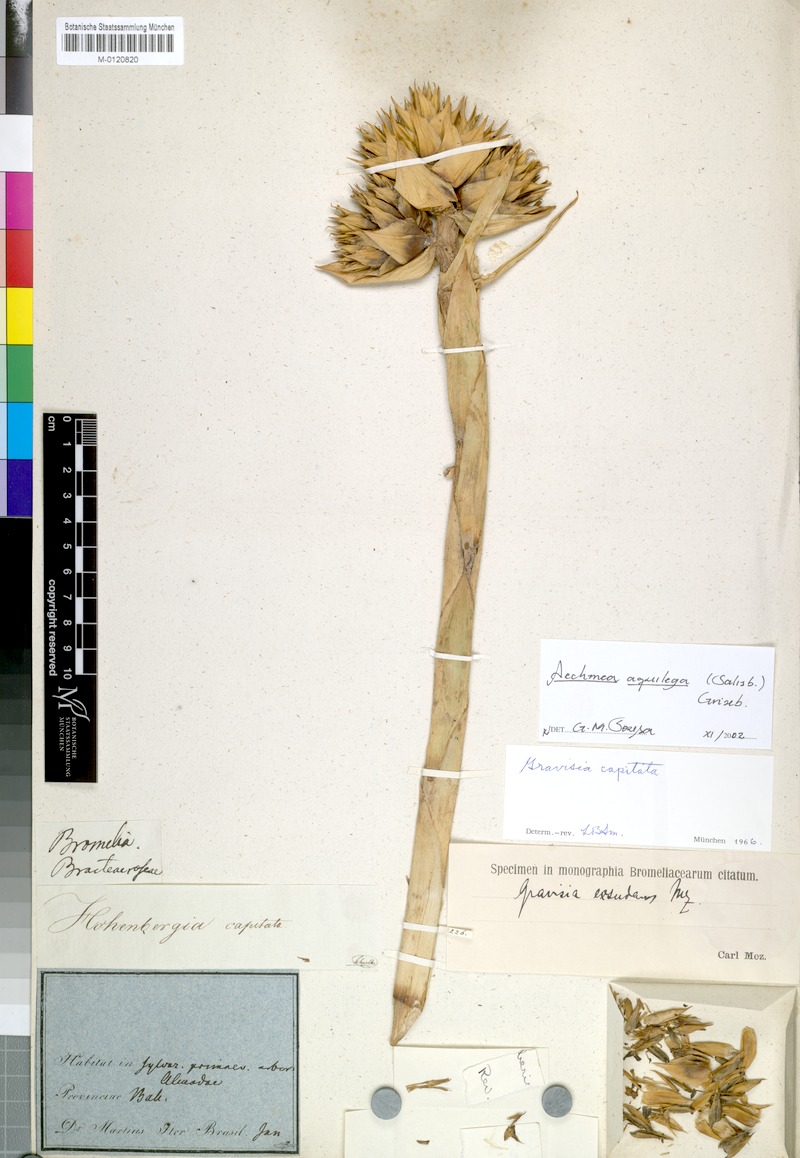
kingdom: Plantae
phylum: Tracheophyta
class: Liliopsida
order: Poales
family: Bromeliaceae
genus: Aechmea
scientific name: Aechmea aquilega
